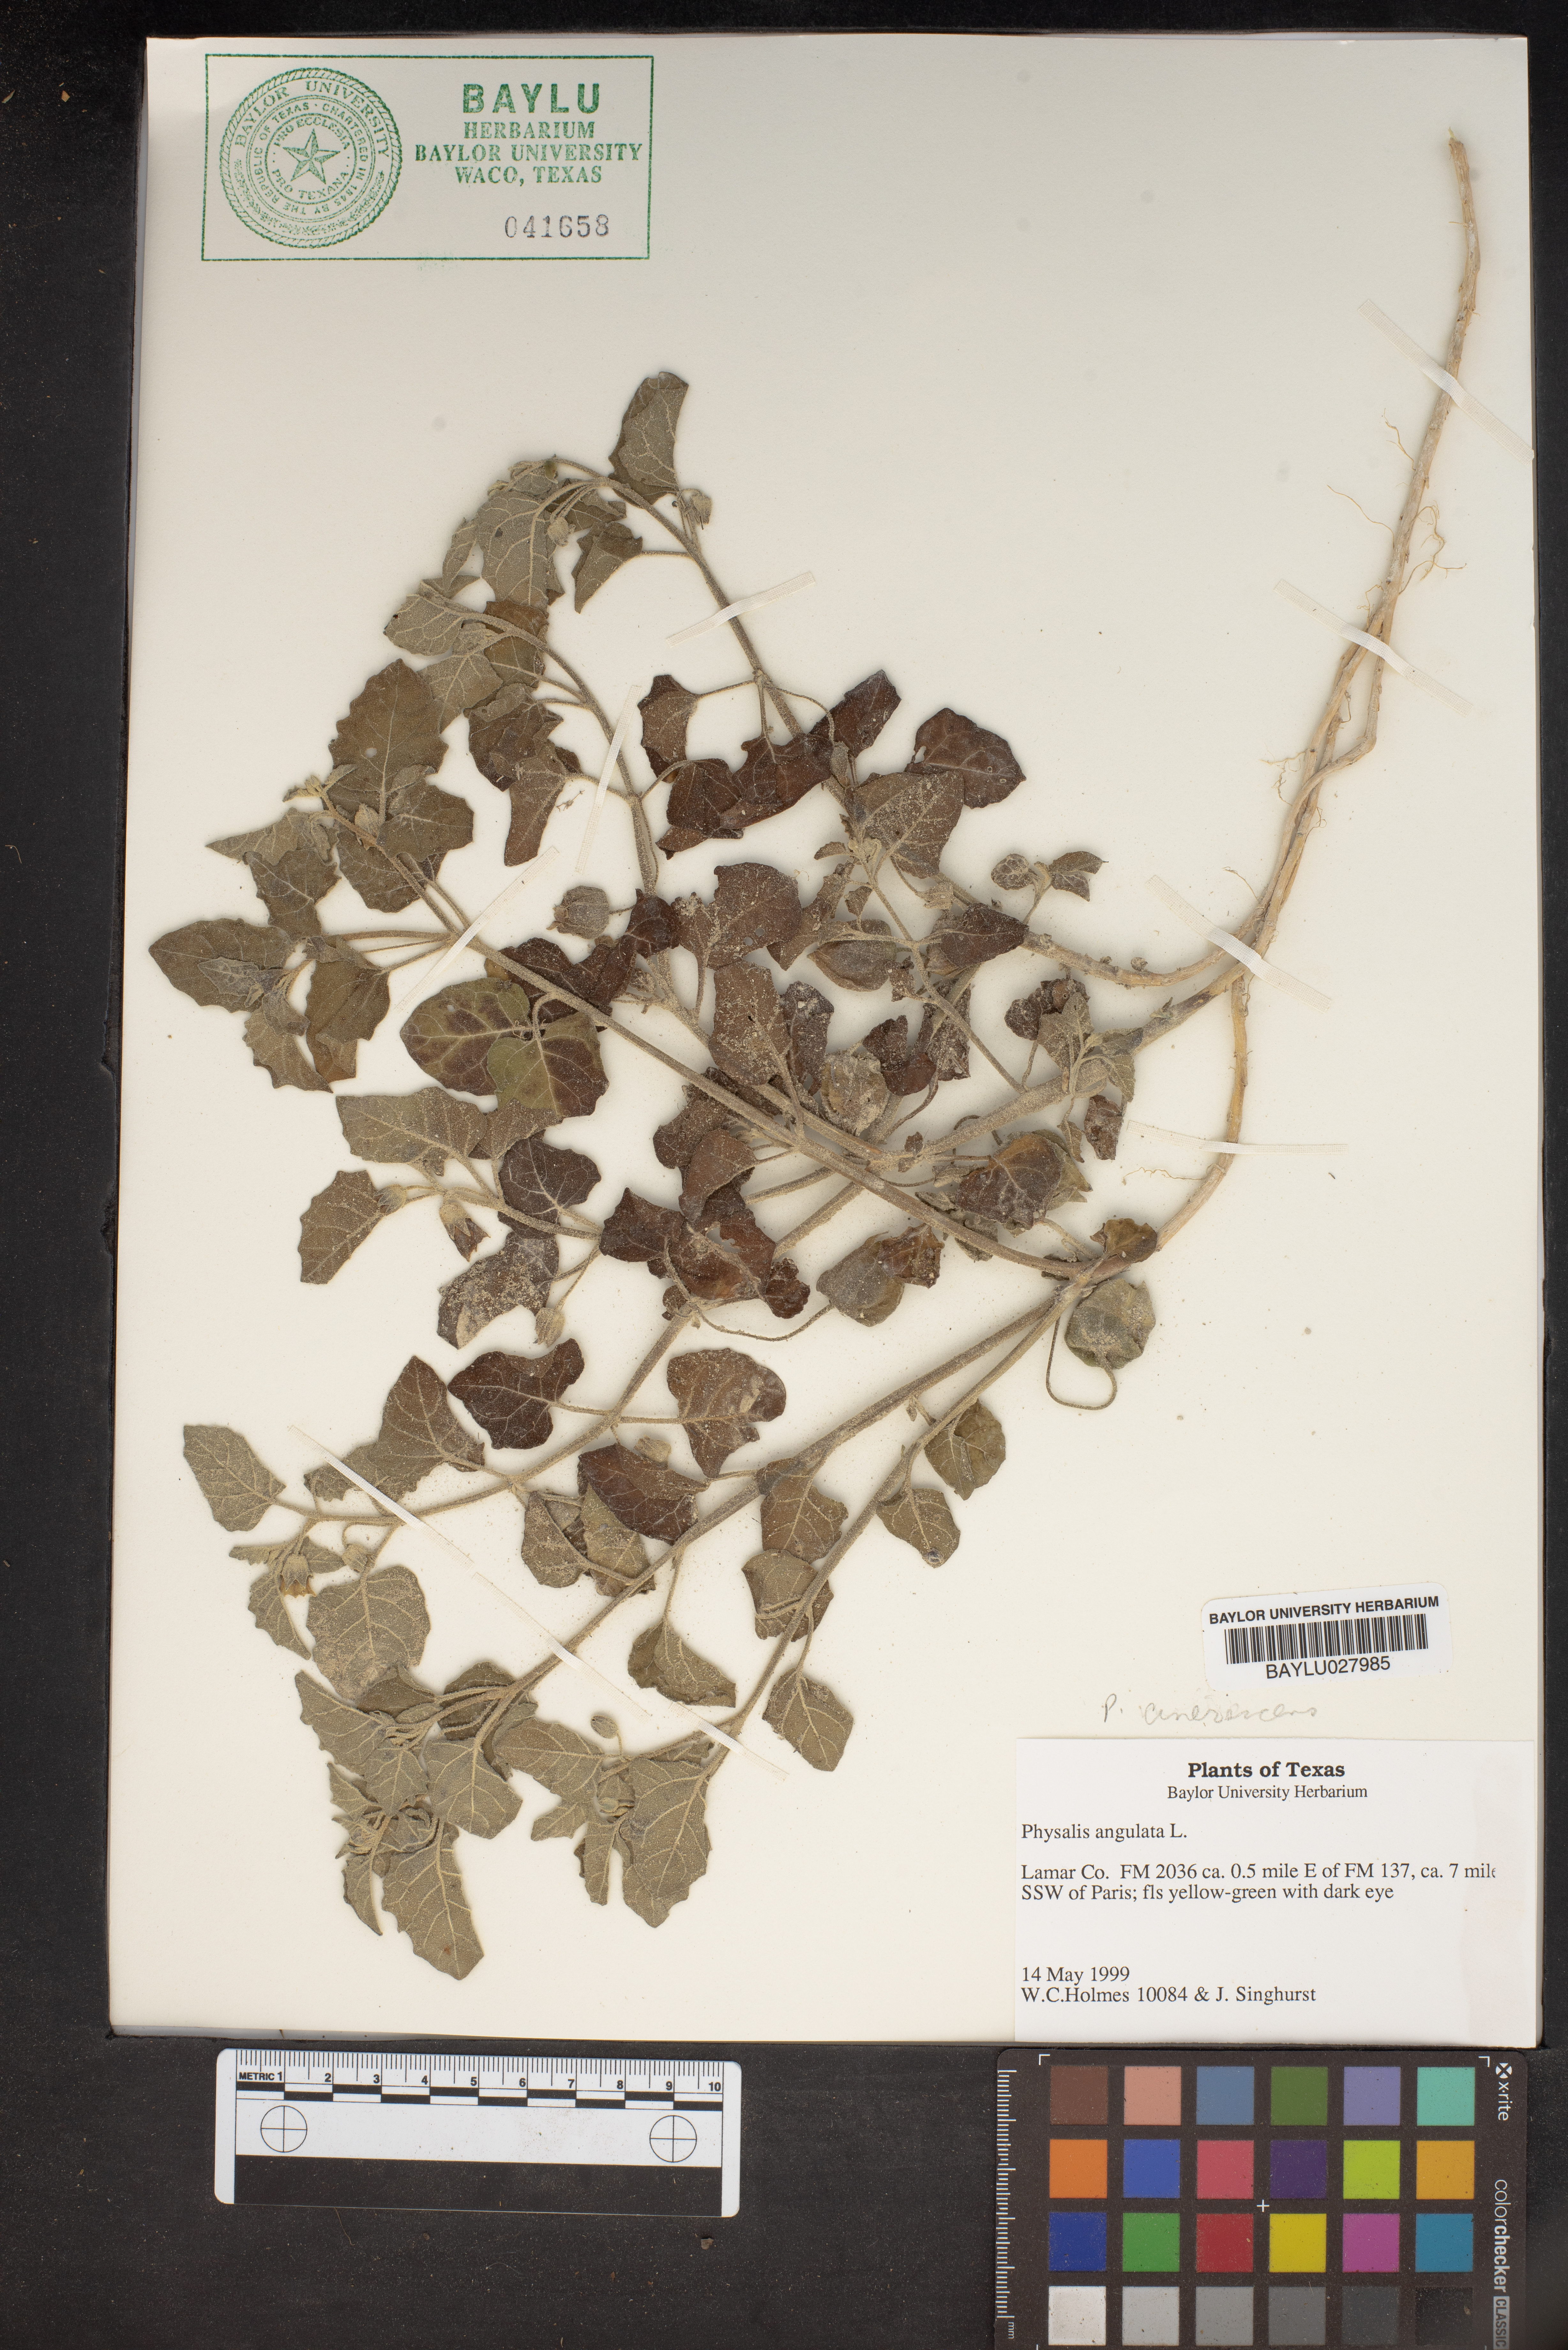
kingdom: Plantae
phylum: Tracheophyta
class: Magnoliopsida
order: Solanales
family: Solanaceae
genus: Physalis
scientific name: Physalis angulata
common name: Angular winter-cherry
